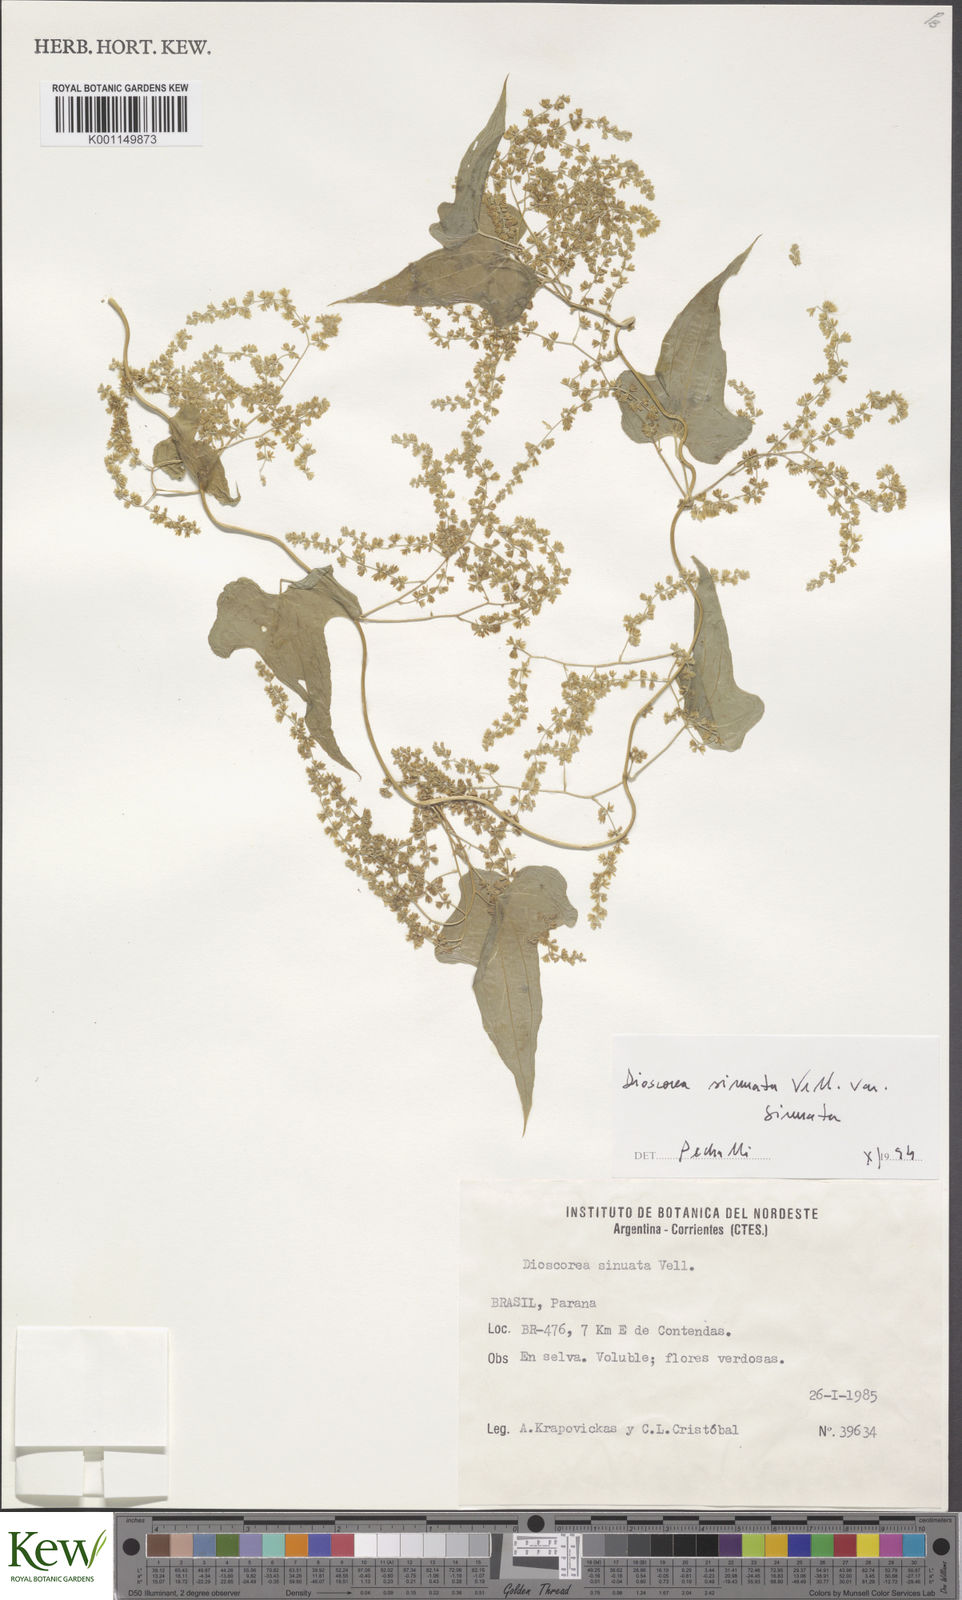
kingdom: Plantae
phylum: Tracheophyta
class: Liliopsida
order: Dioscoreales
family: Dioscoreaceae
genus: Dioscorea
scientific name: Dioscorea sinuata
